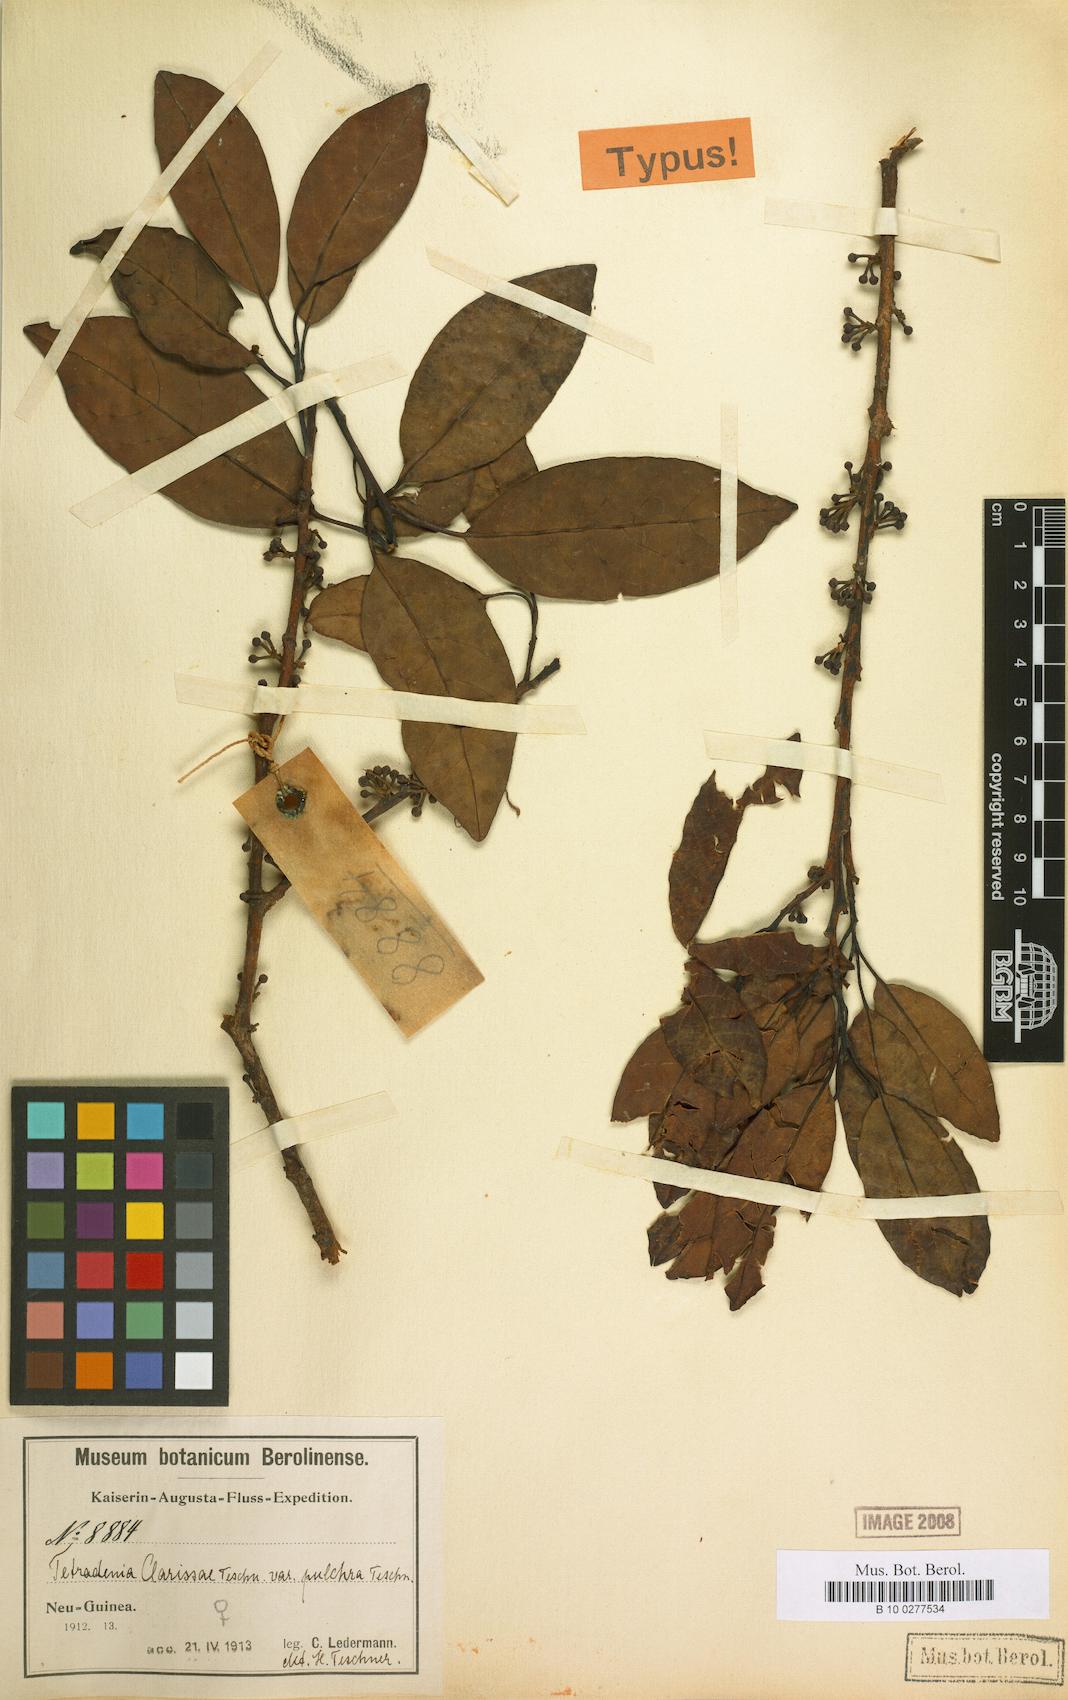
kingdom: Plantae
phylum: Tracheophyta
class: Magnoliopsida
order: Laurales
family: Lauraceae
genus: Litsea
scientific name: Litsea clarissae
